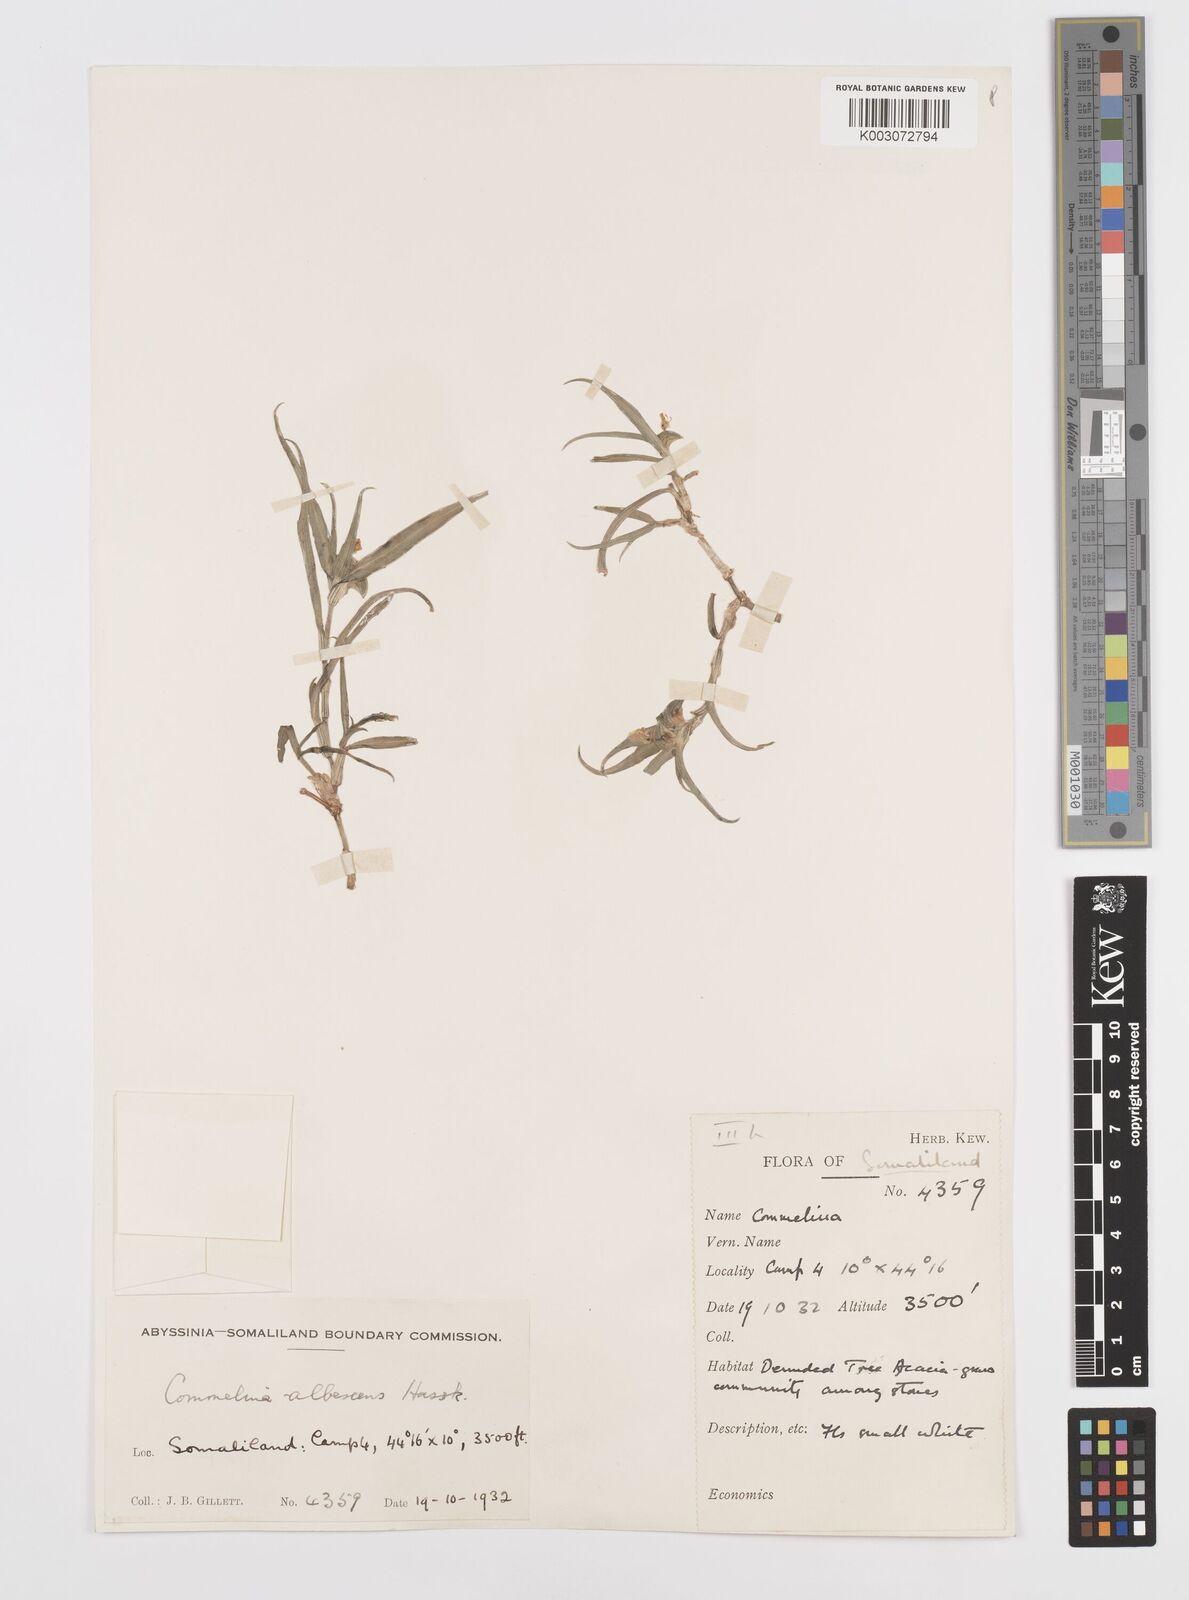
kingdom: Plantae
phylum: Tracheophyta
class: Liliopsida
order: Commelinales
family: Commelinaceae
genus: Commelina
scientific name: Commelina albescens
